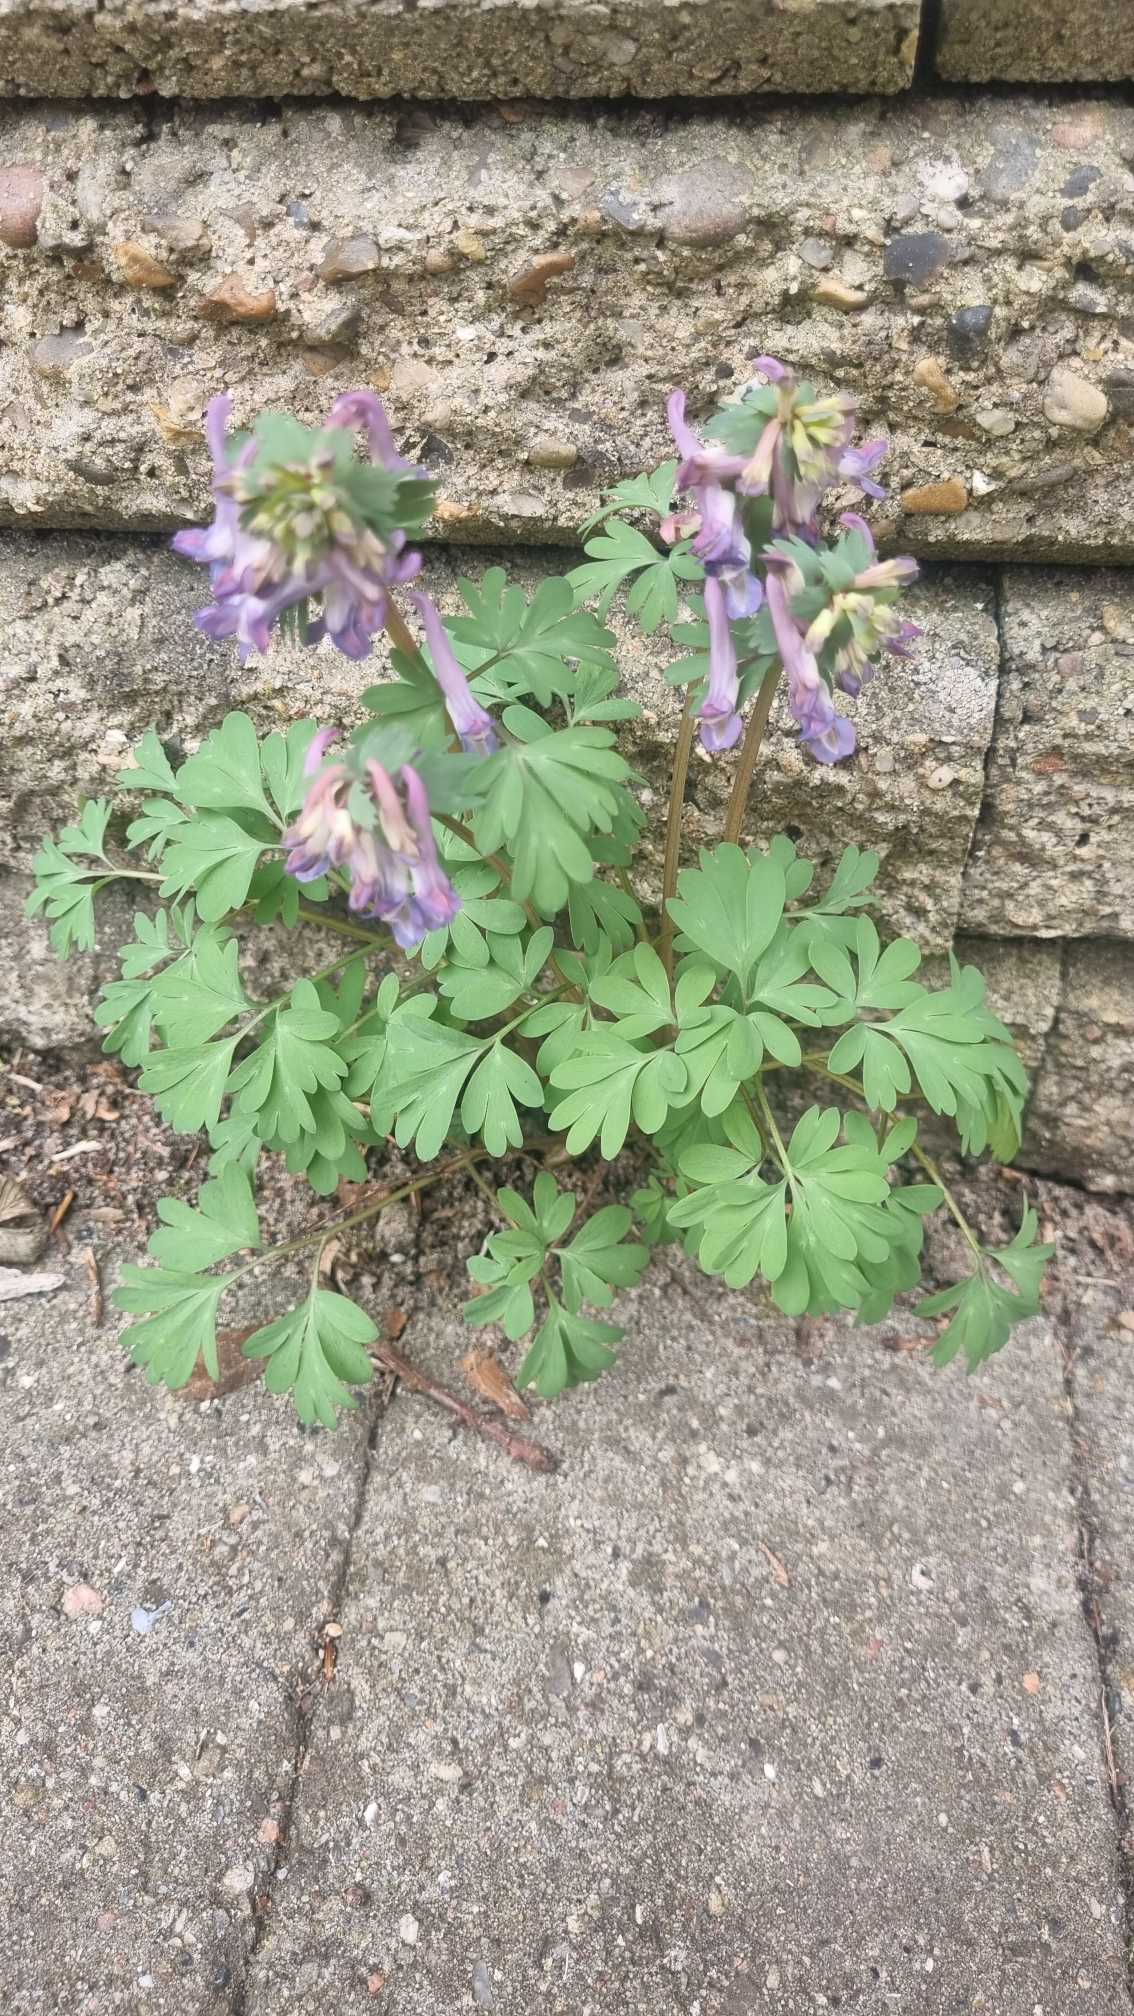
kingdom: Plantae
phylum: Tracheophyta
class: Magnoliopsida
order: Ranunculales
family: Papaveraceae
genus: Corydalis
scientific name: Corydalis solida
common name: Langstilket lærkespore
